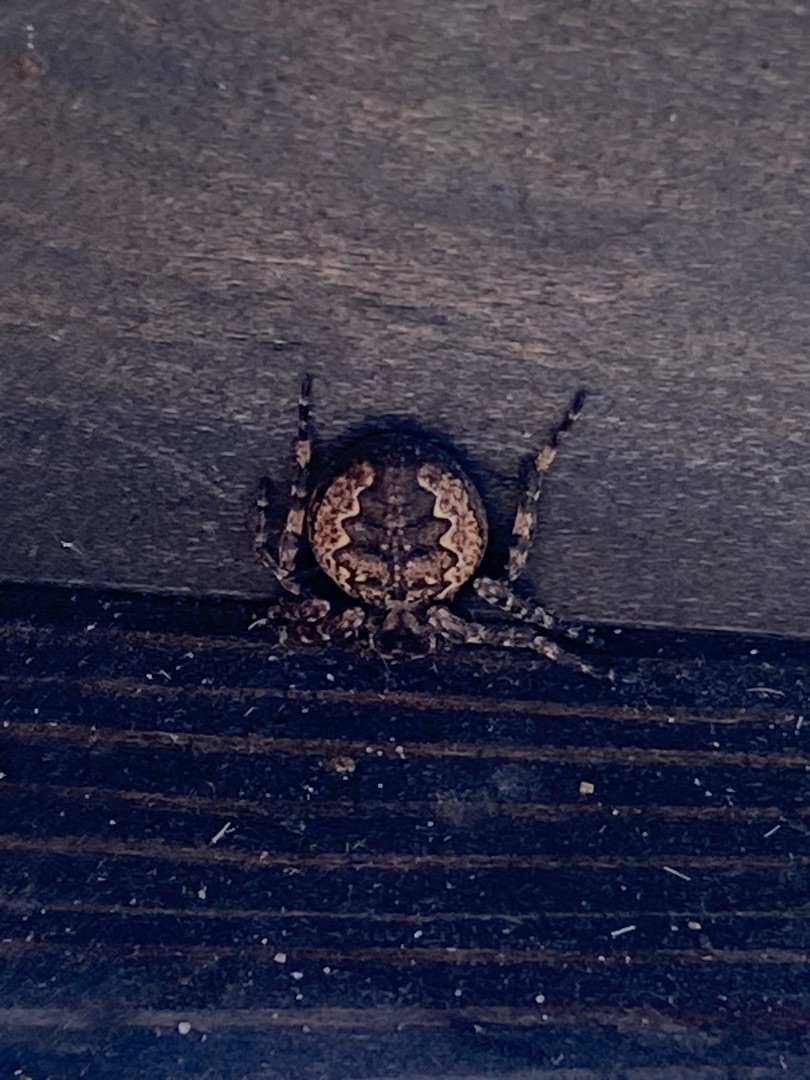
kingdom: Animalia
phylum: Arthropoda
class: Arachnida
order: Araneae
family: Araneidae
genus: Nuctenea
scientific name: Nuctenea umbratica
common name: Flad hjulspinder
